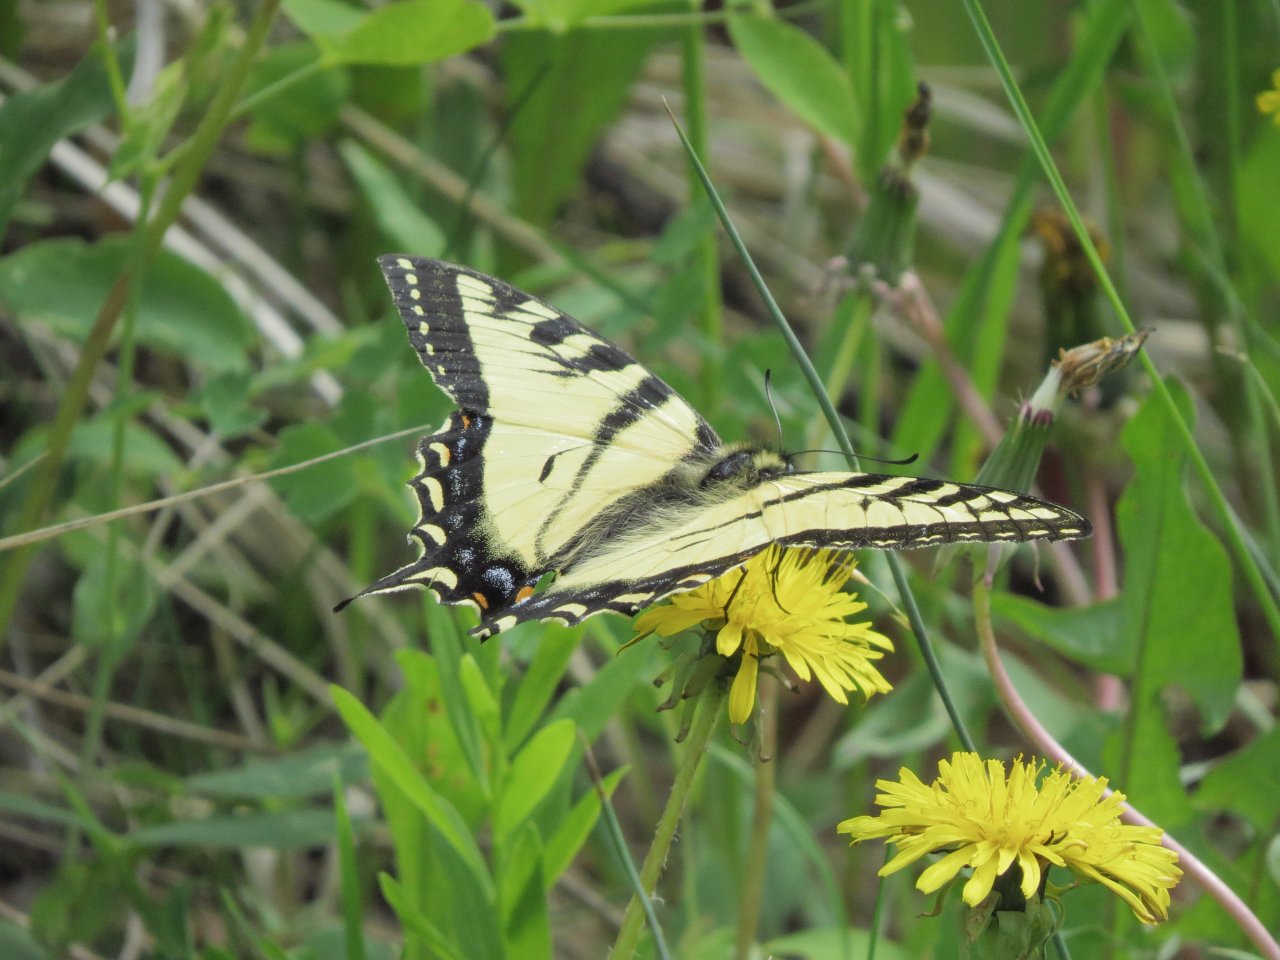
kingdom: Animalia
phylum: Arthropoda
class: Insecta
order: Lepidoptera
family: Papilionidae
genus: Pterourus
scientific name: Pterourus canadensis
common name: Canadian Tiger Swallowtail
